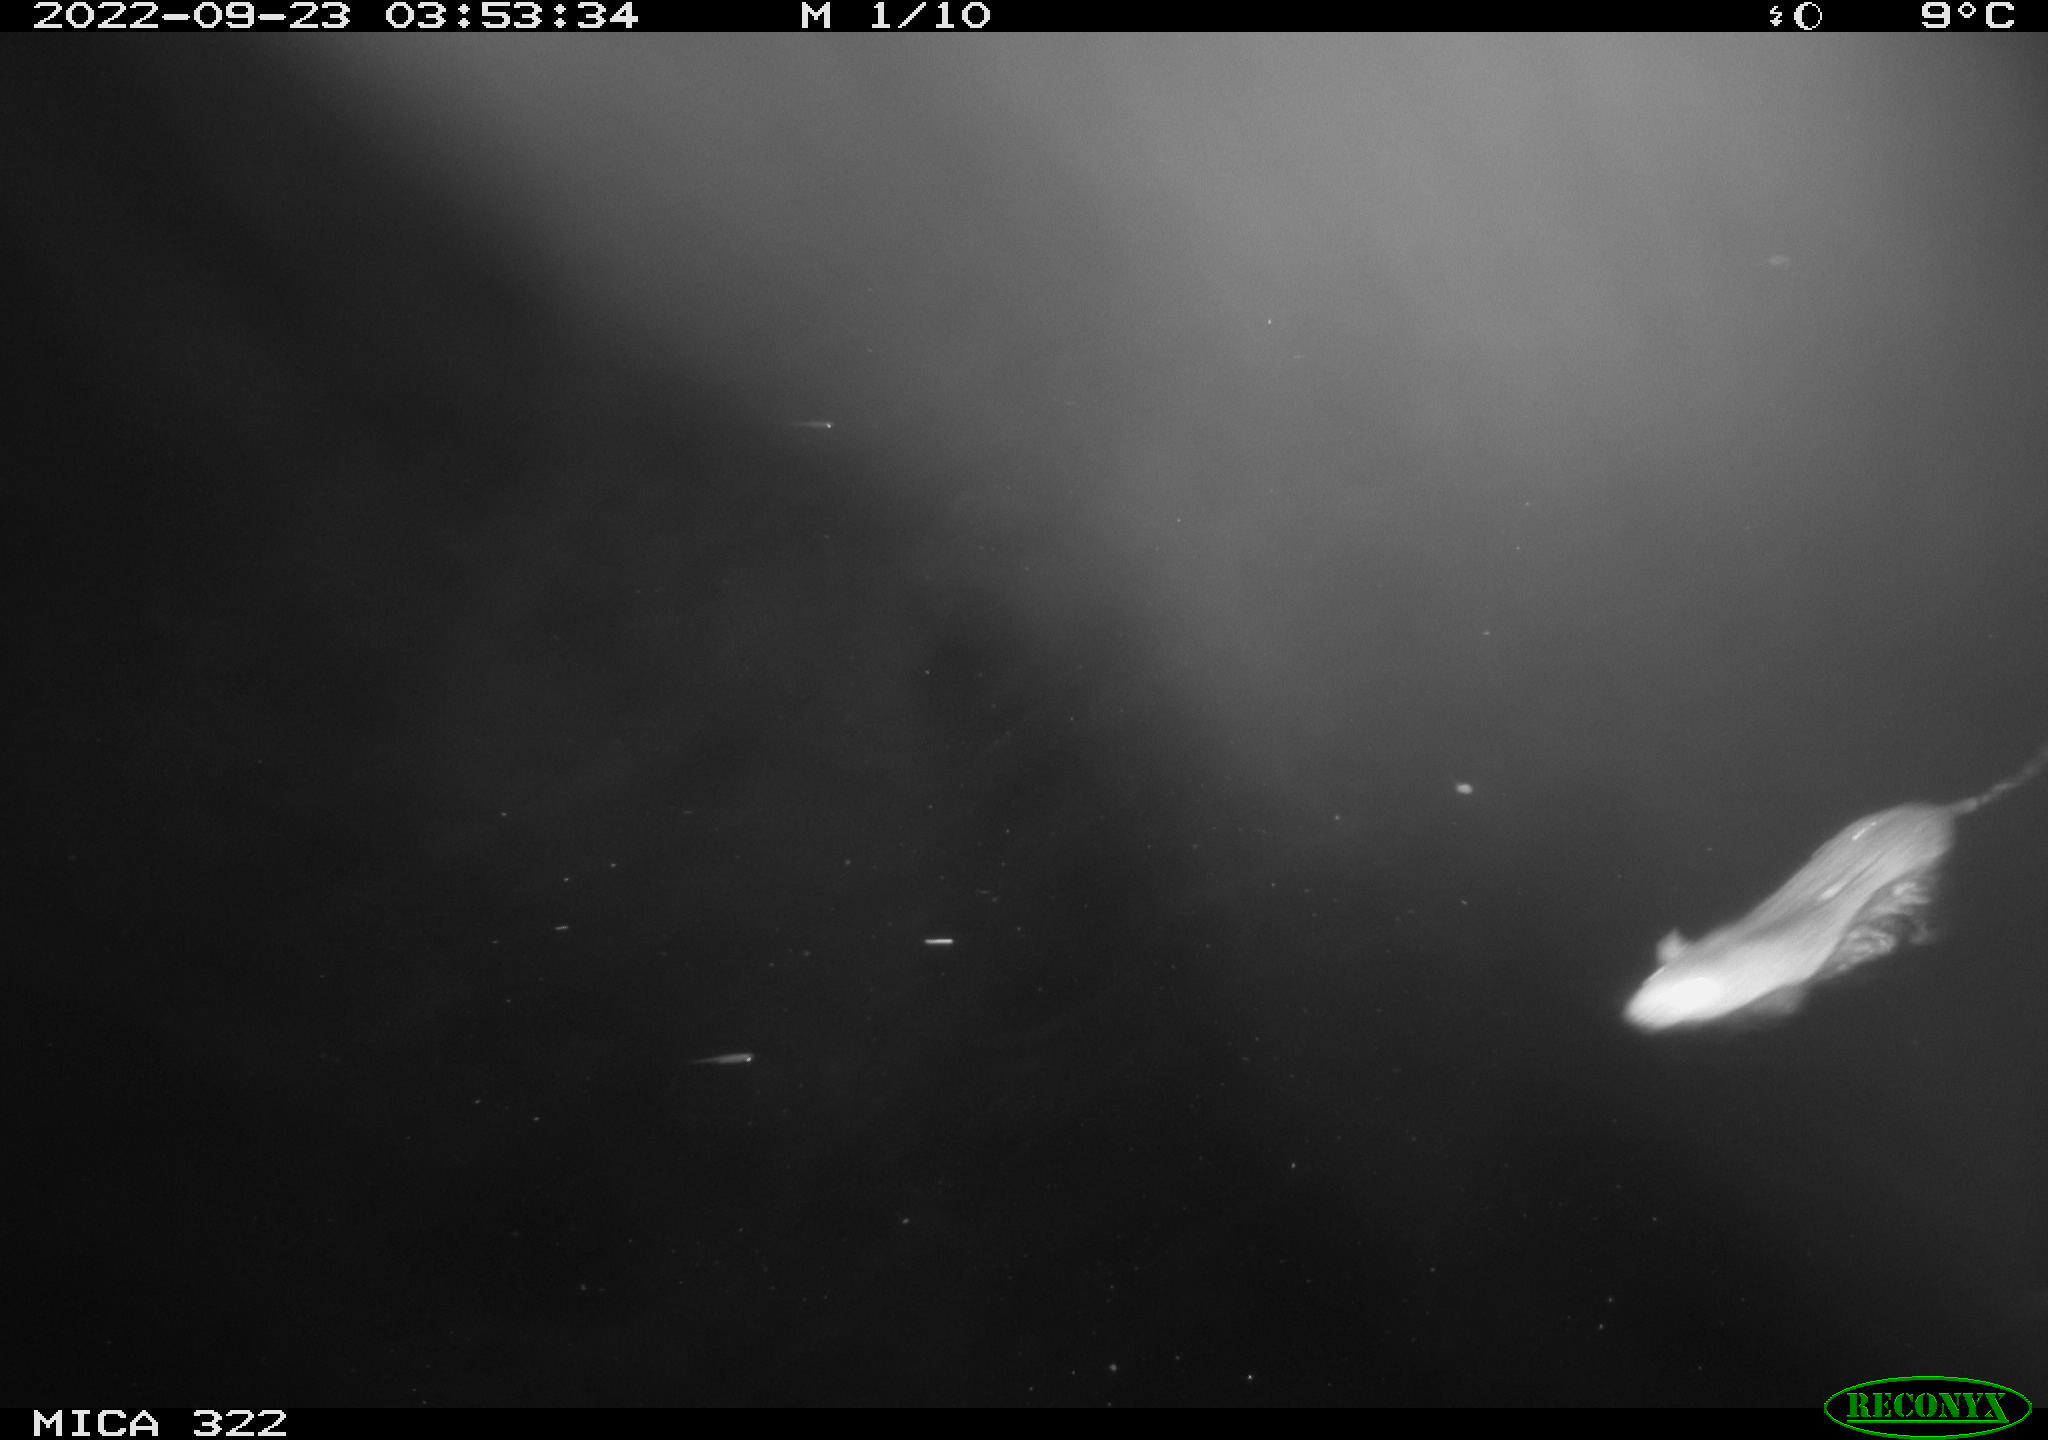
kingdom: Animalia
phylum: Chordata
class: Mammalia
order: Rodentia
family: Muridae
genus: Rattus
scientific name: Rattus norvegicus
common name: Brown rat
